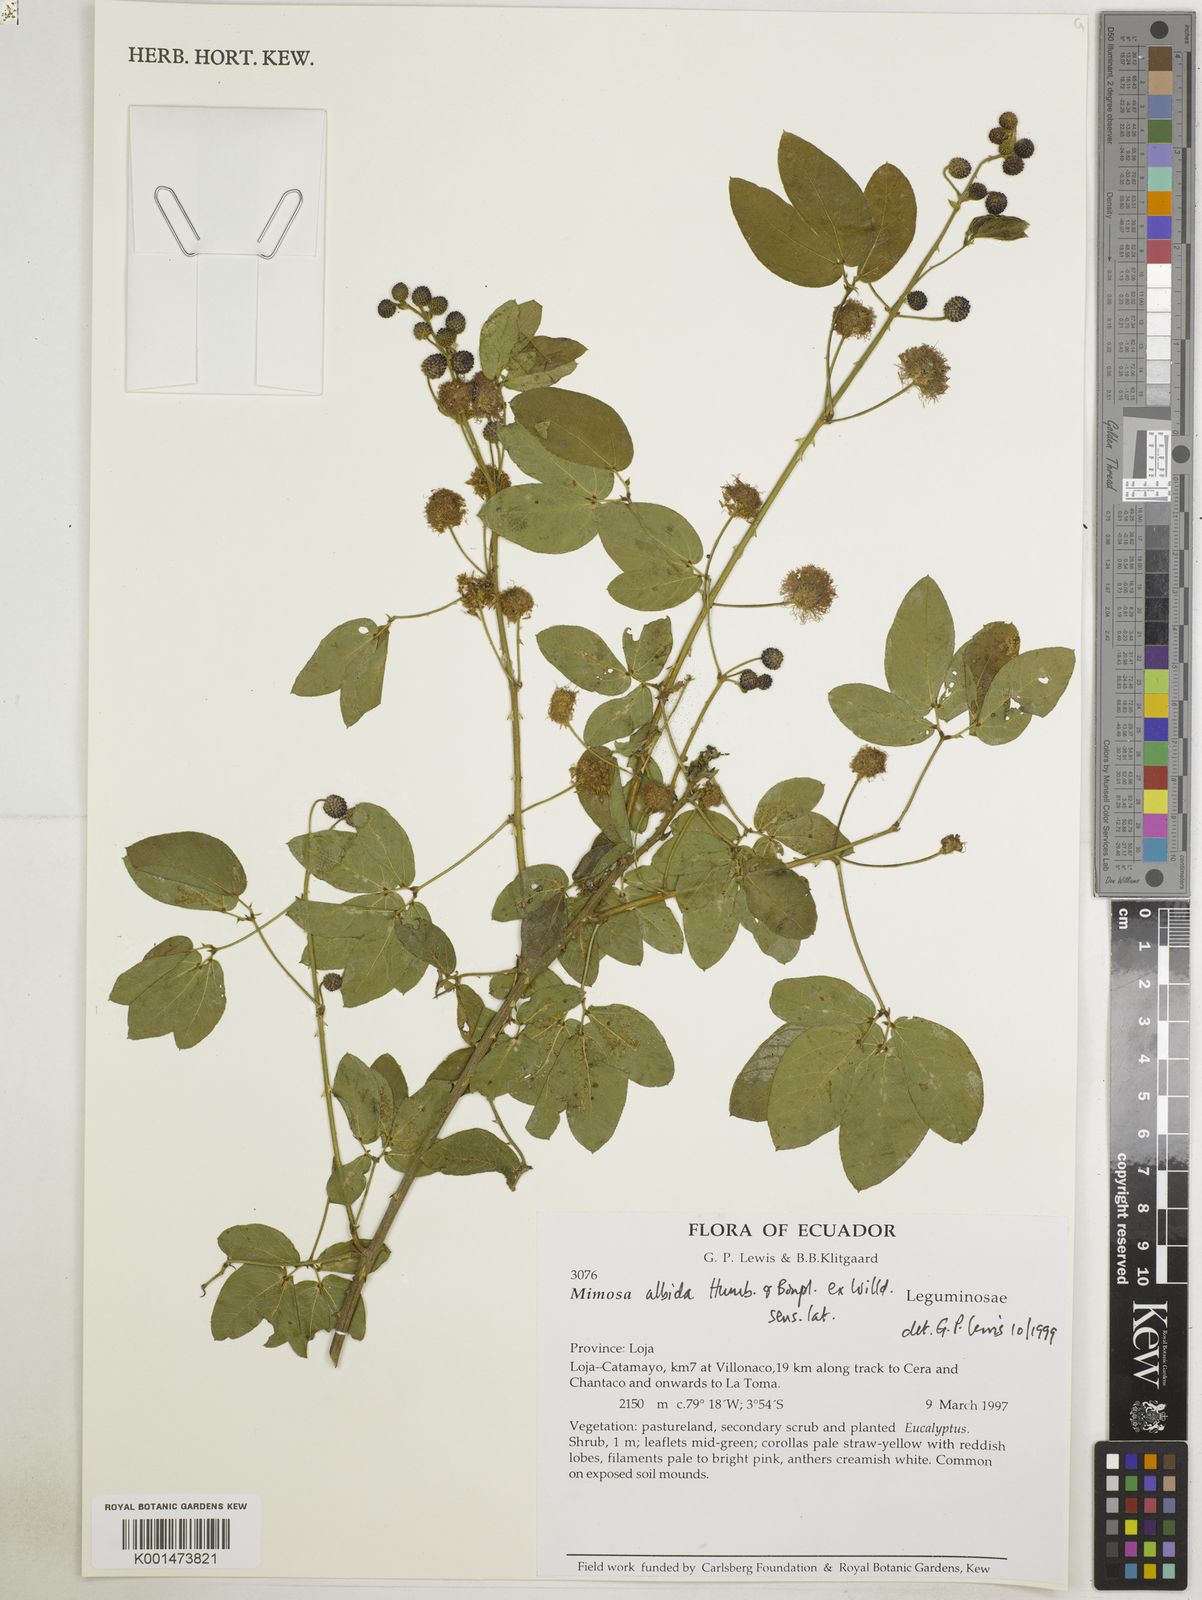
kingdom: Plantae
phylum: Tracheophyta
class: Magnoliopsida
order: Fabales
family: Fabaceae
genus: Mimosa
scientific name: Mimosa albida
